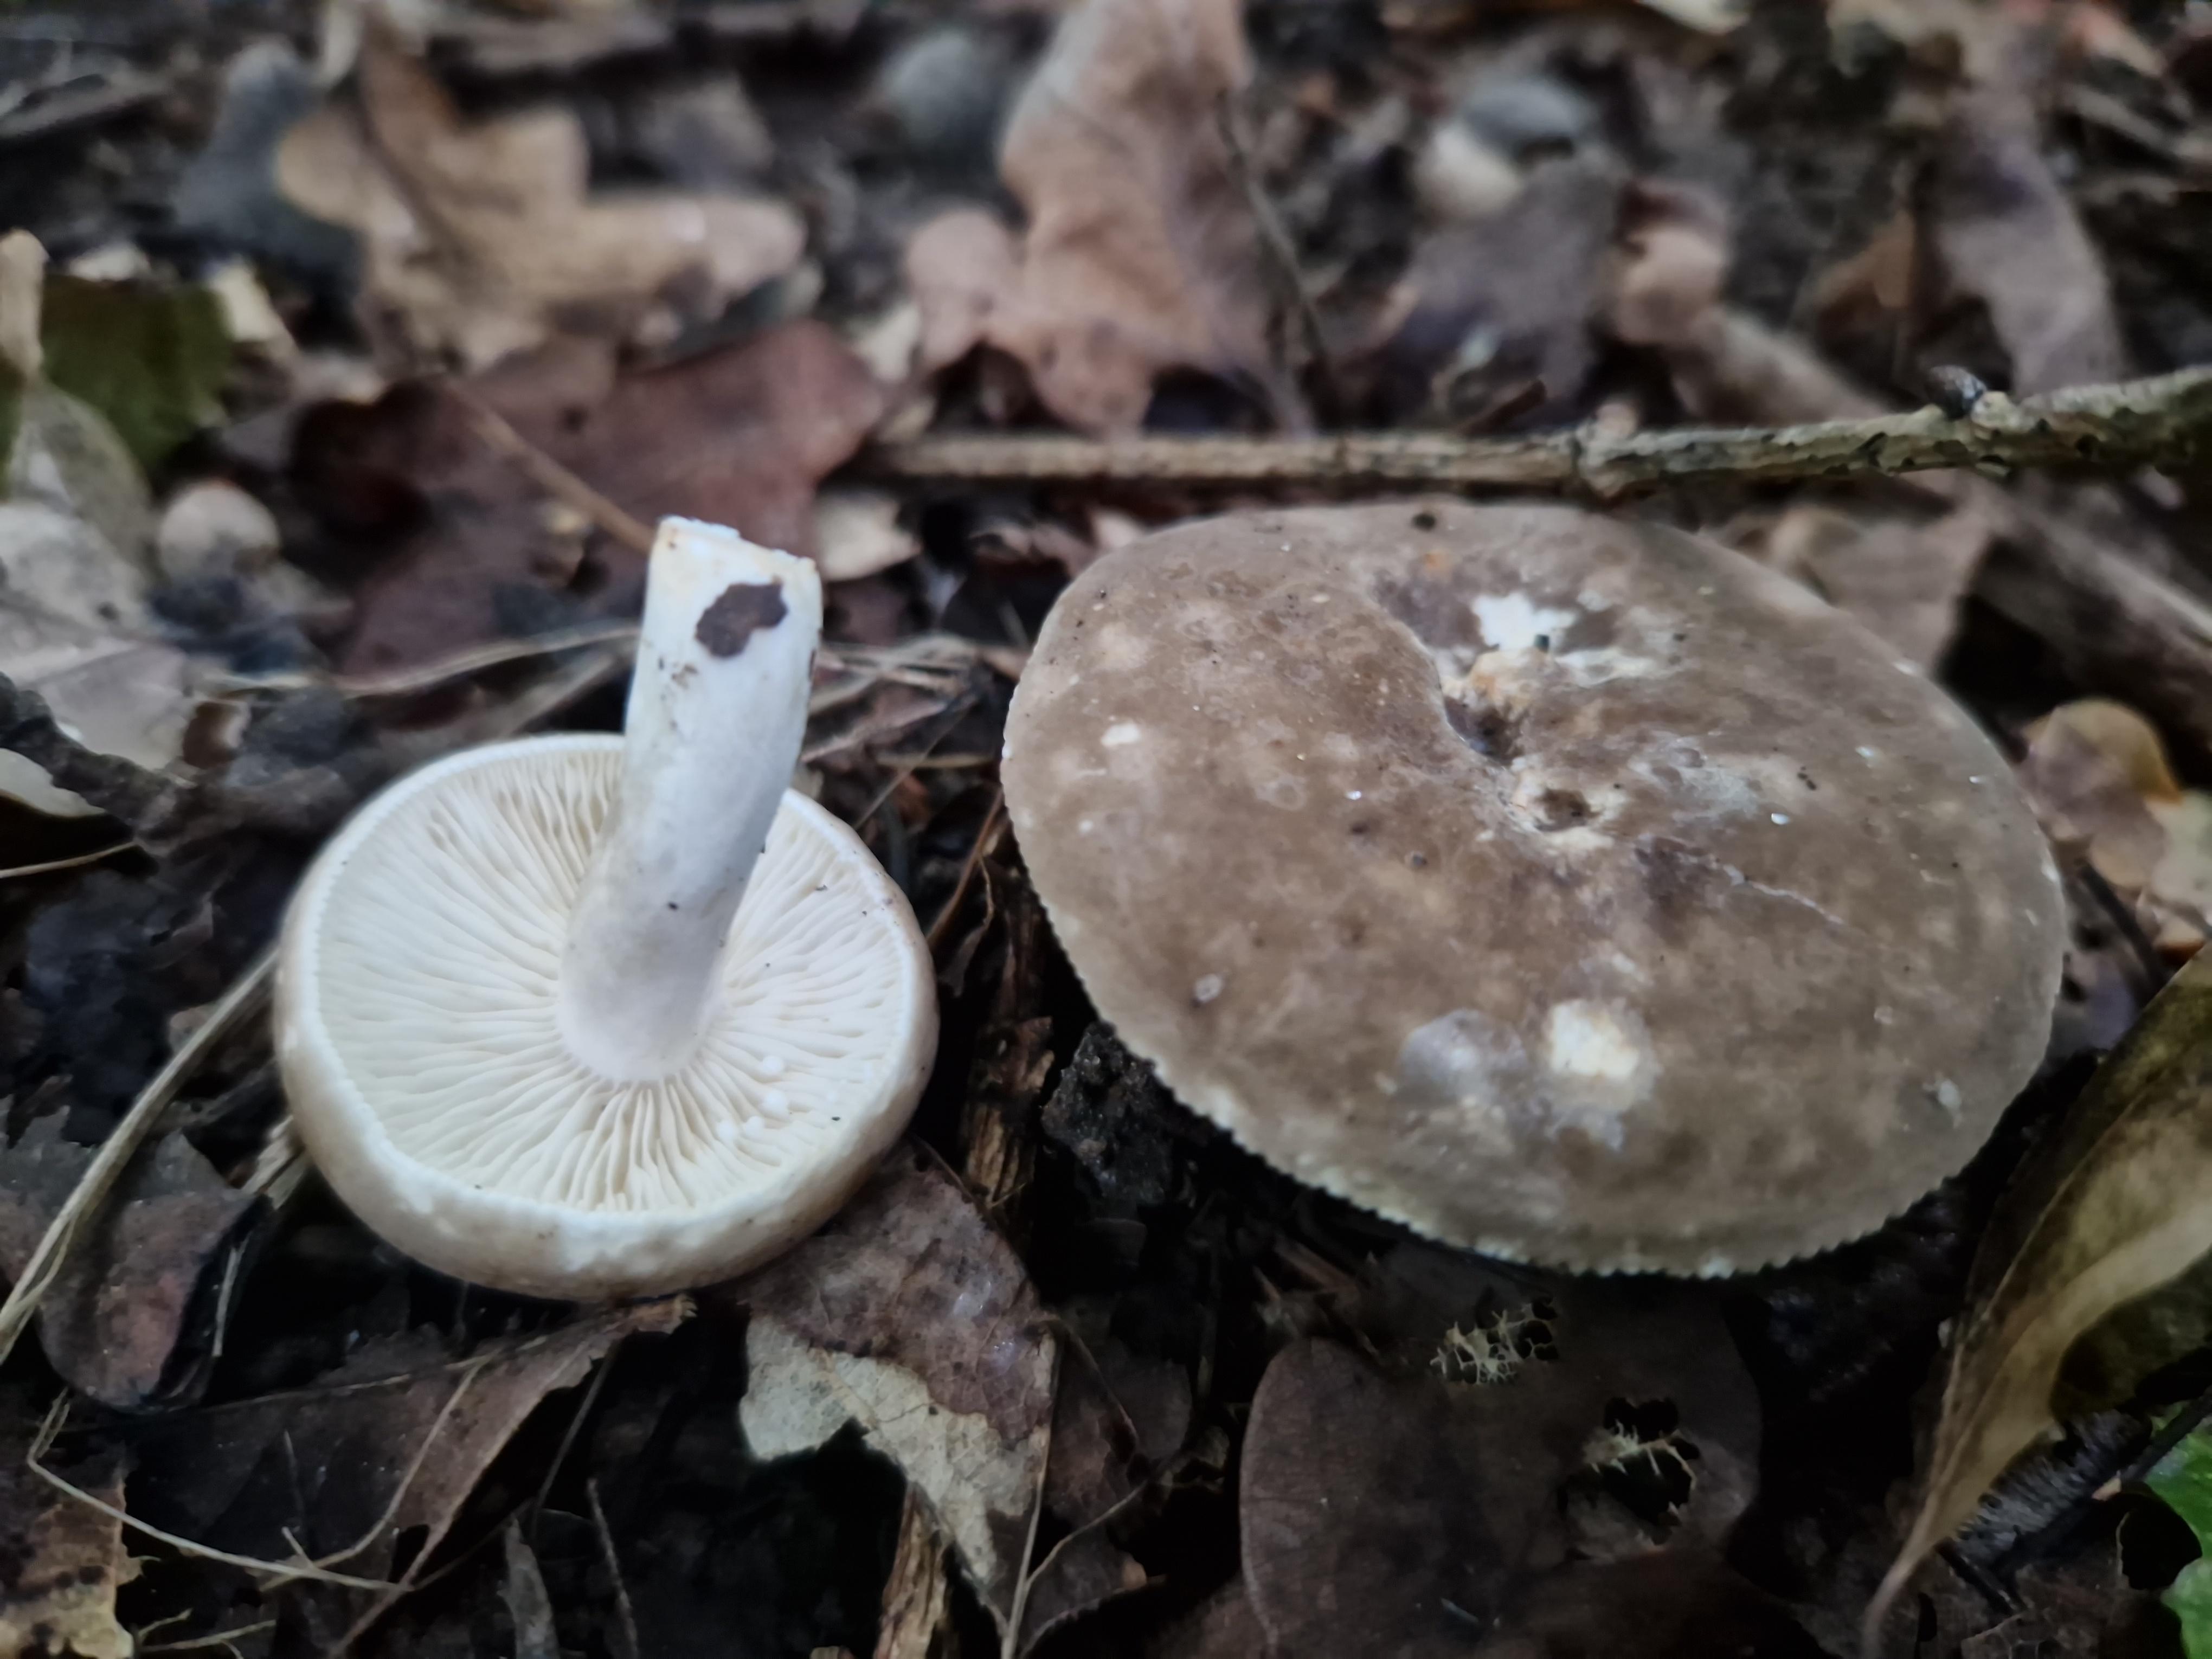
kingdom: Fungi
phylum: Basidiomycota
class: Agaricomycetes
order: Russulales
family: Russulaceae
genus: Lactarius
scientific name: Lactarius azonites
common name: røggrå mælkehat
